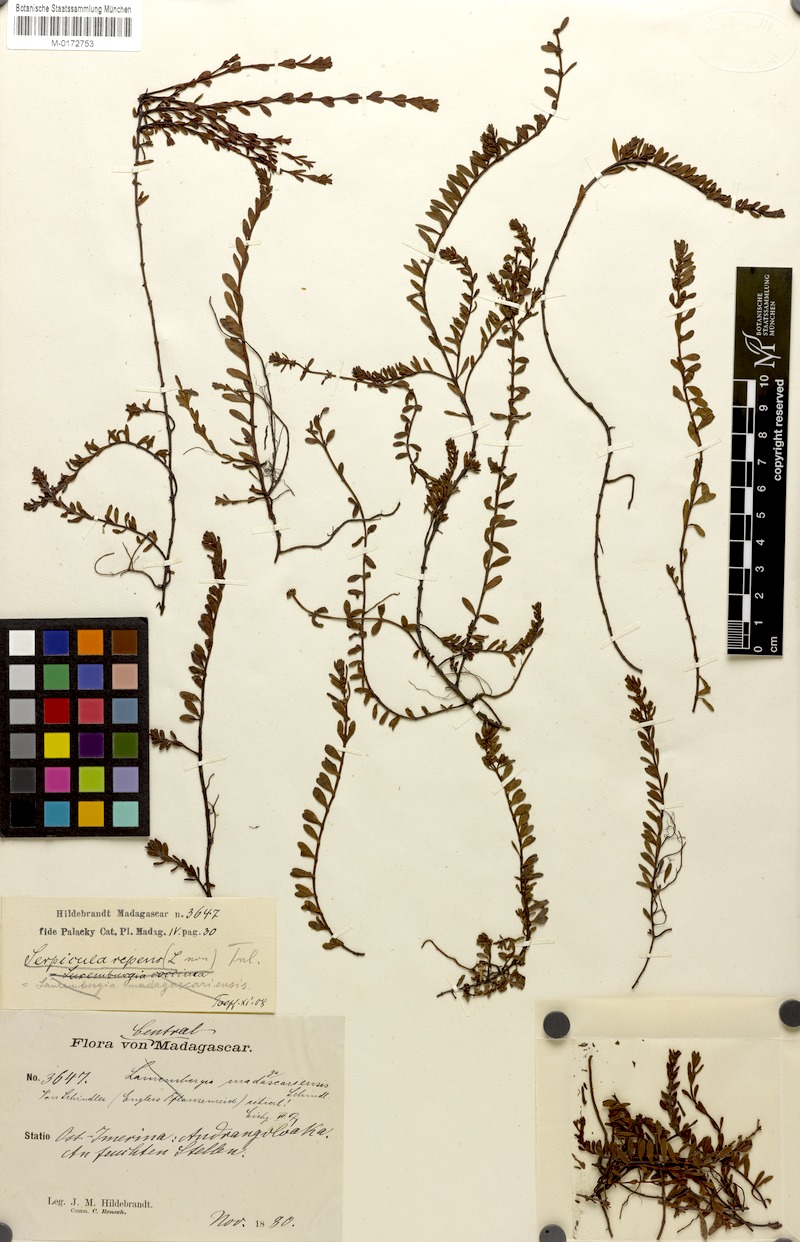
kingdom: Plantae
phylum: Tracheophyta
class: Magnoliopsida
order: Saxifragales
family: Haloragaceae
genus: Laurembergia
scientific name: Laurembergia tetrandra
